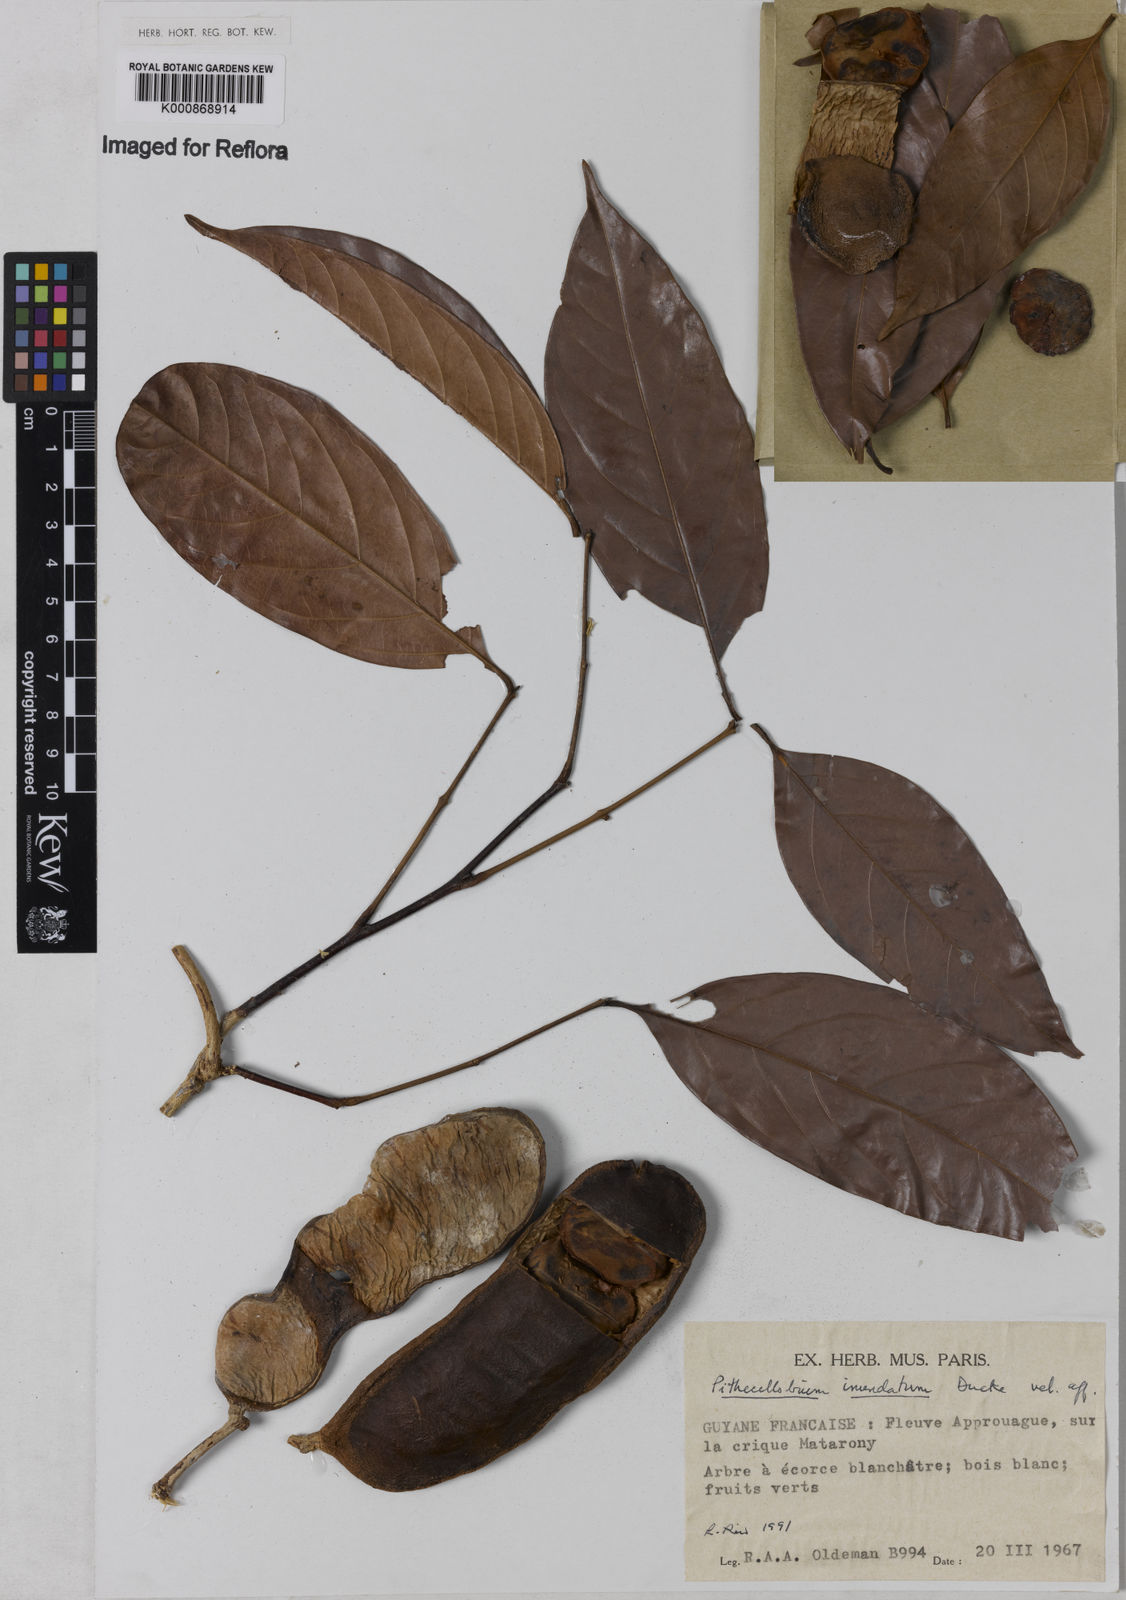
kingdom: Plantae
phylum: Tracheophyta
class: Magnoliopsida
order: Fabales
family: Fabaceae
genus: Zygia
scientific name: Zygia
